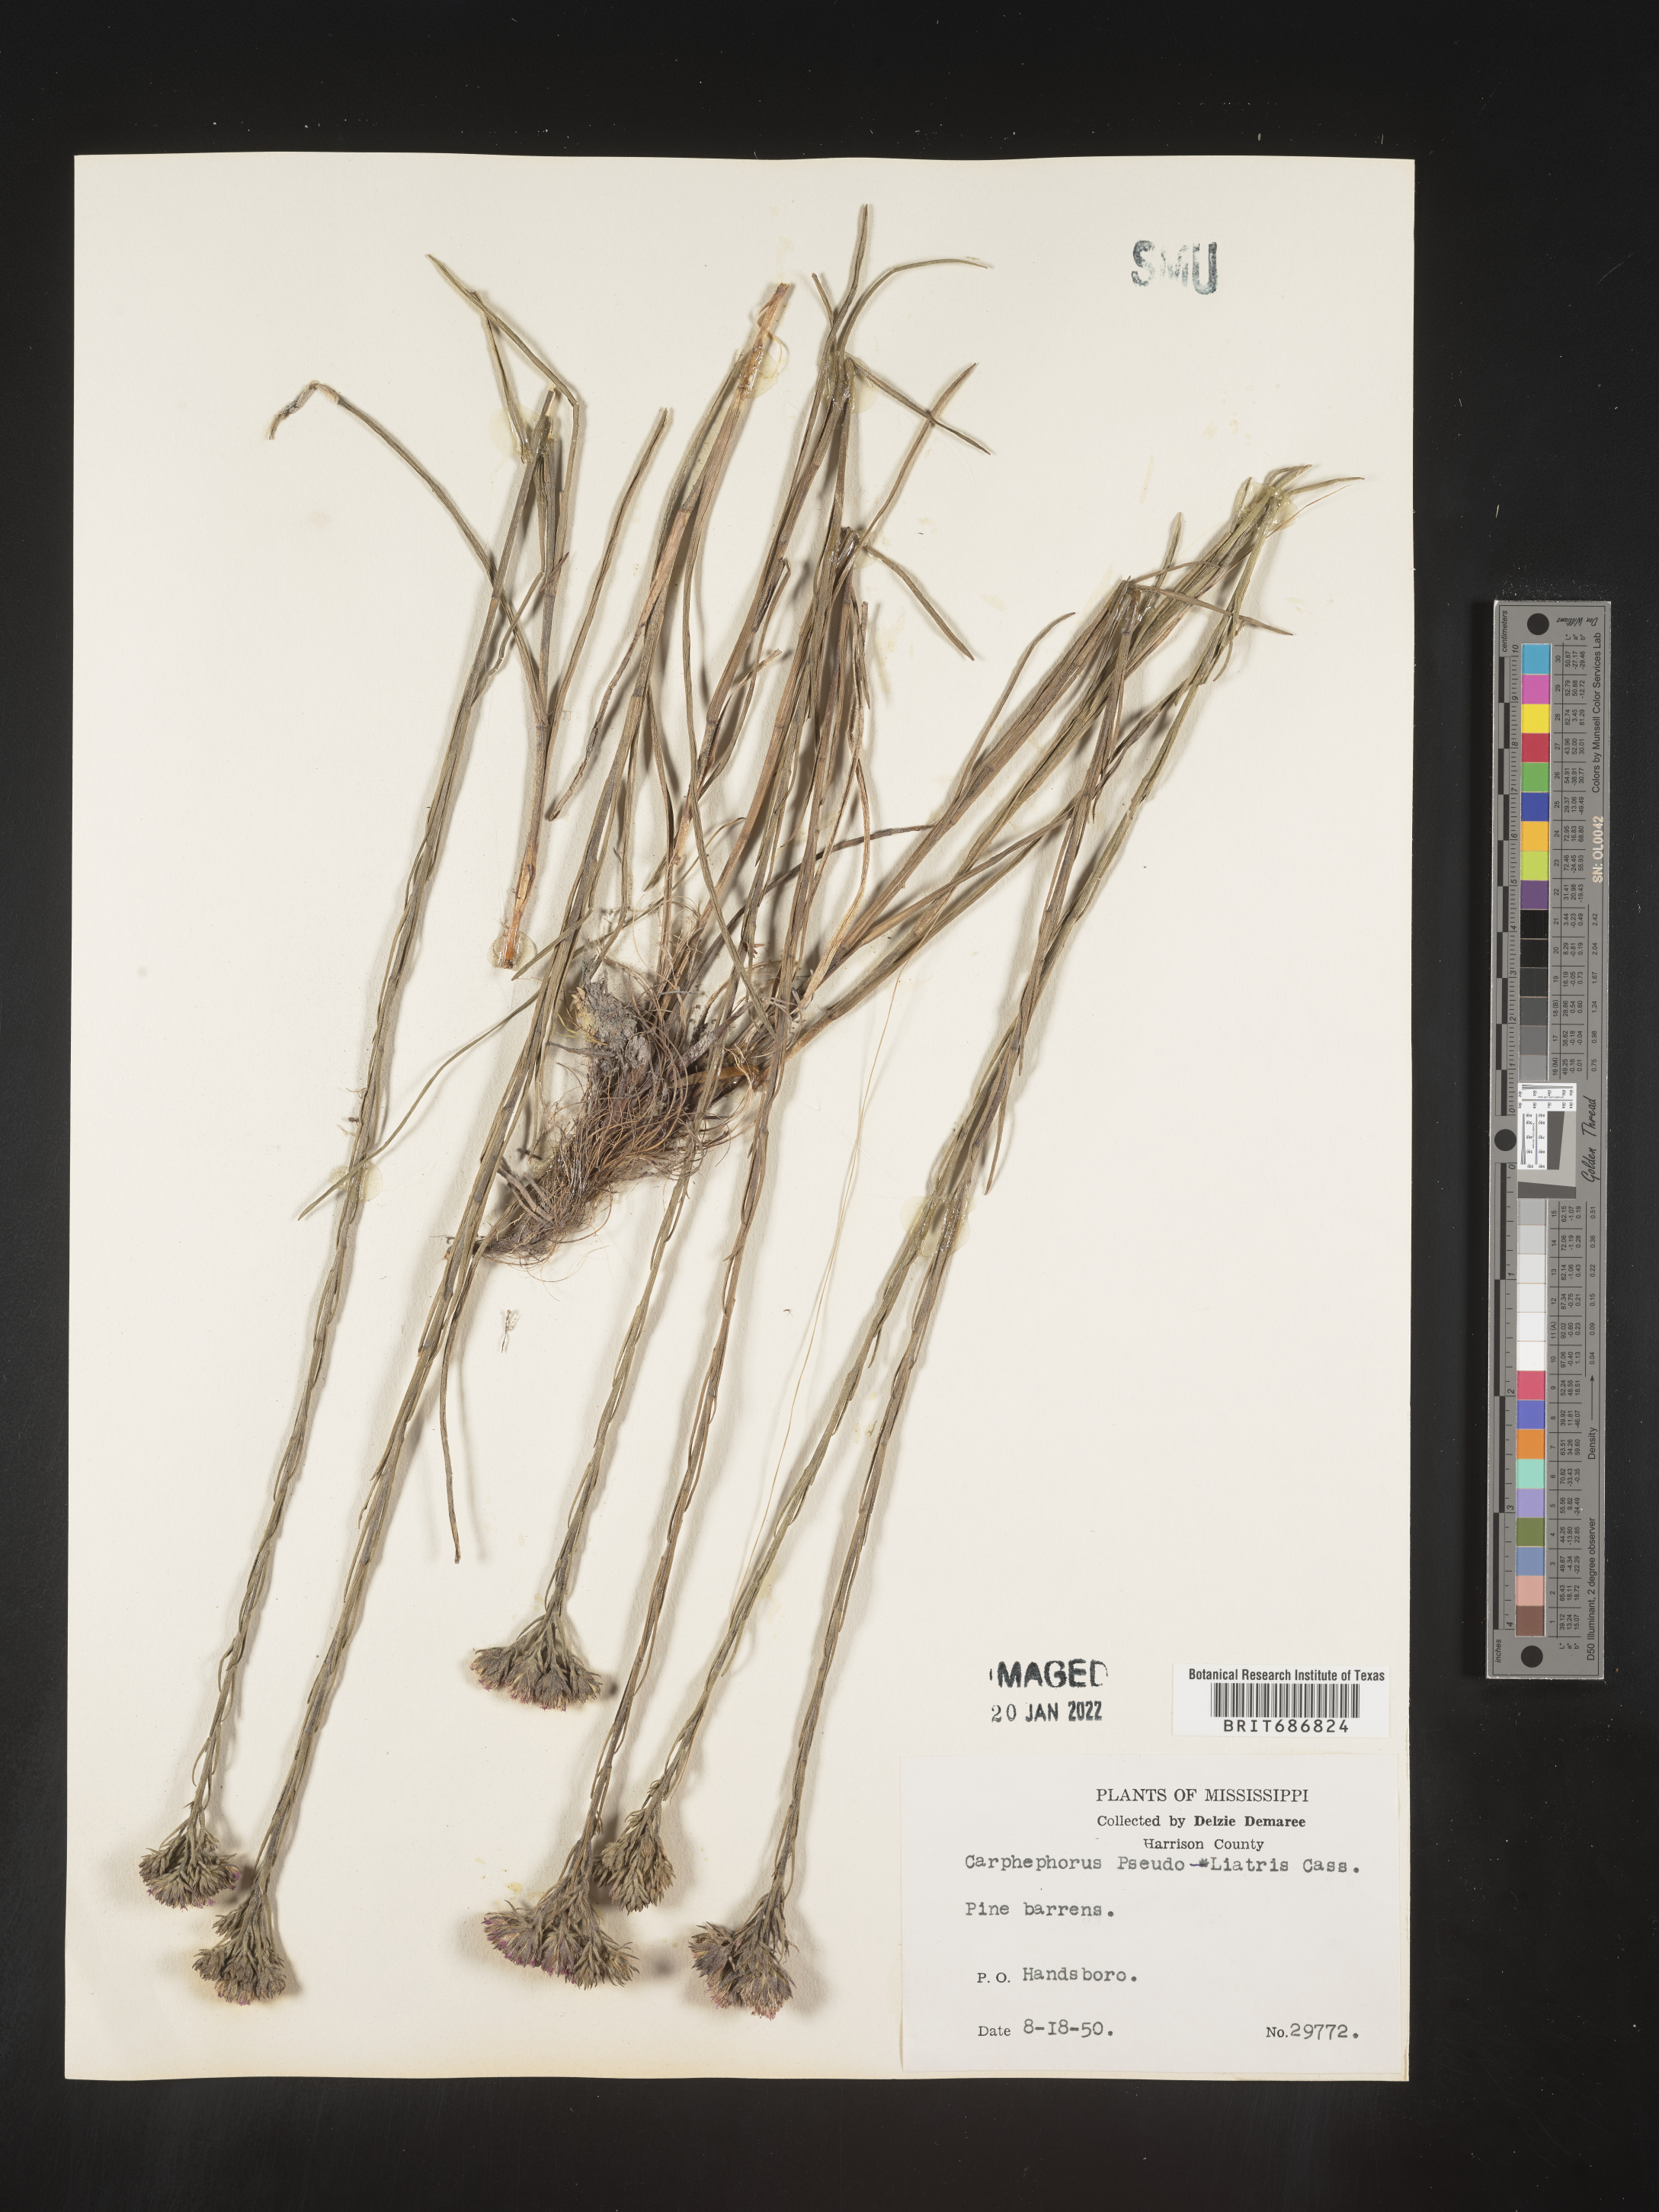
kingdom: Plantae
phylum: Tracheophyta
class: Magnoliopsida
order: Asterales
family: Asteraceae
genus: Carphephorus
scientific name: Carphephorus pseudoliatris
